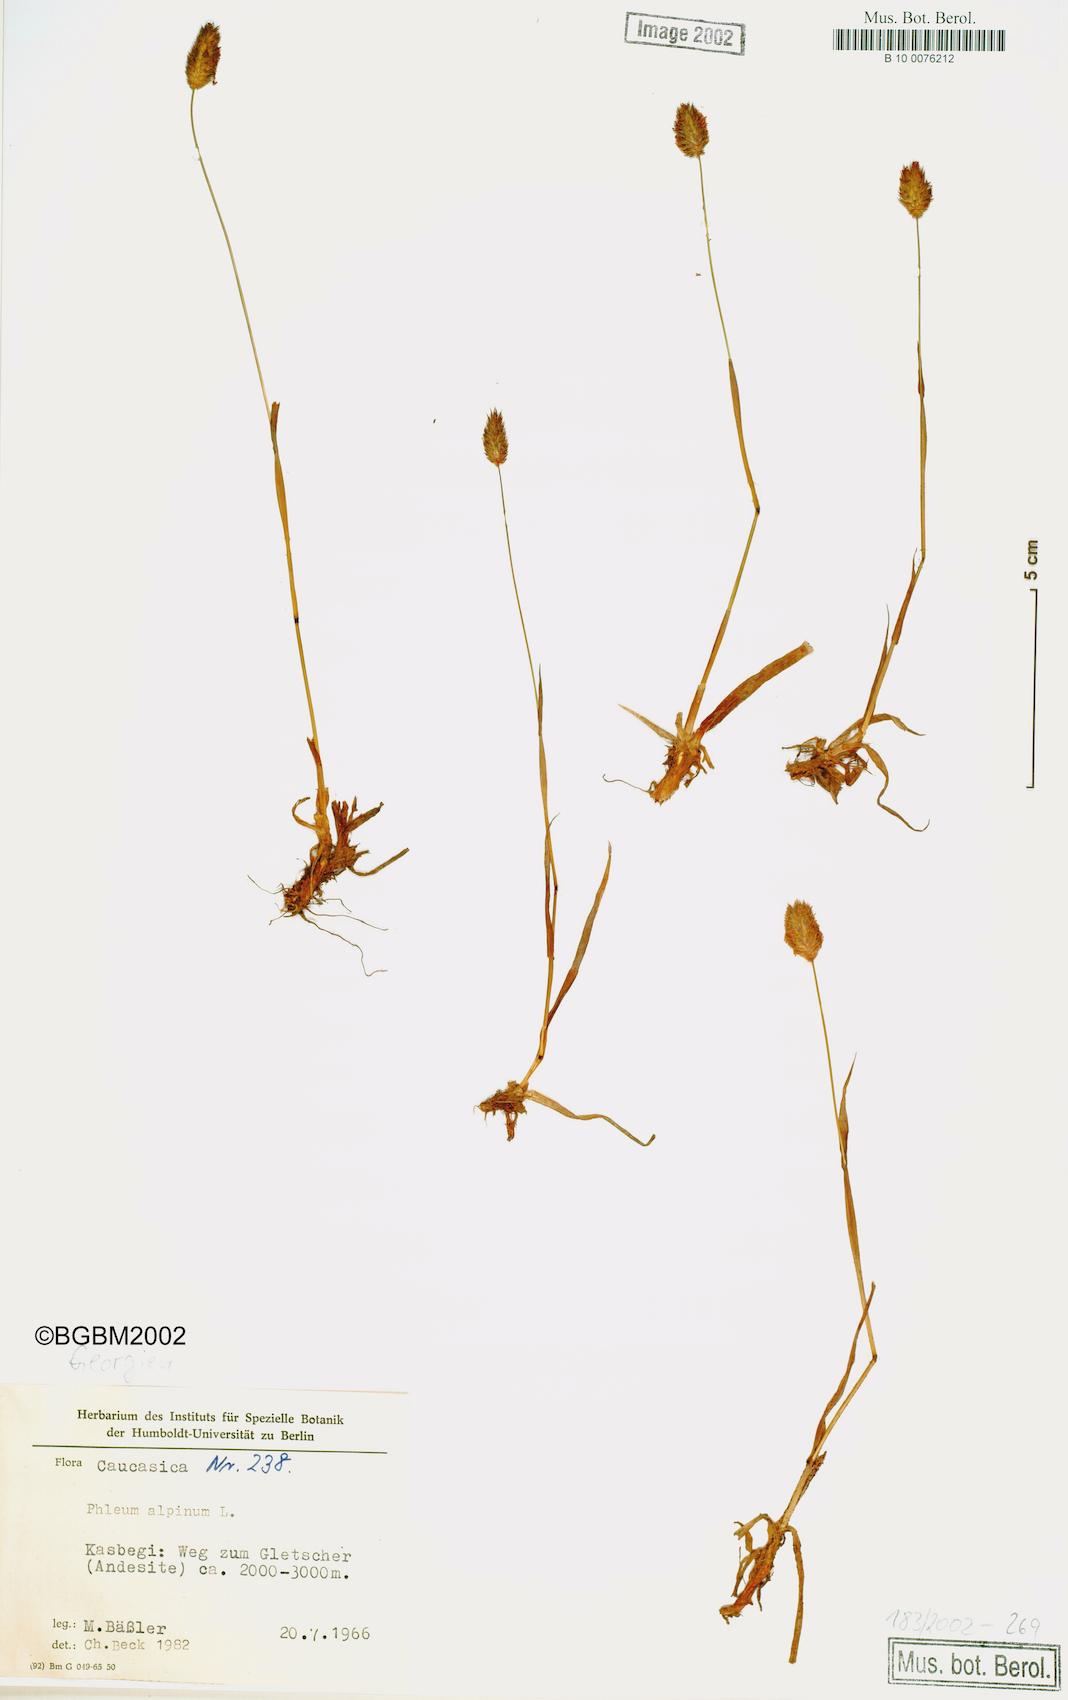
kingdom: Plantae
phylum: Tracheophyta
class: Liliopsida
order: Poales
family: Poaceae
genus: Phleum
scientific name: Phleum alpinum
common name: Alpine cat's-tail
